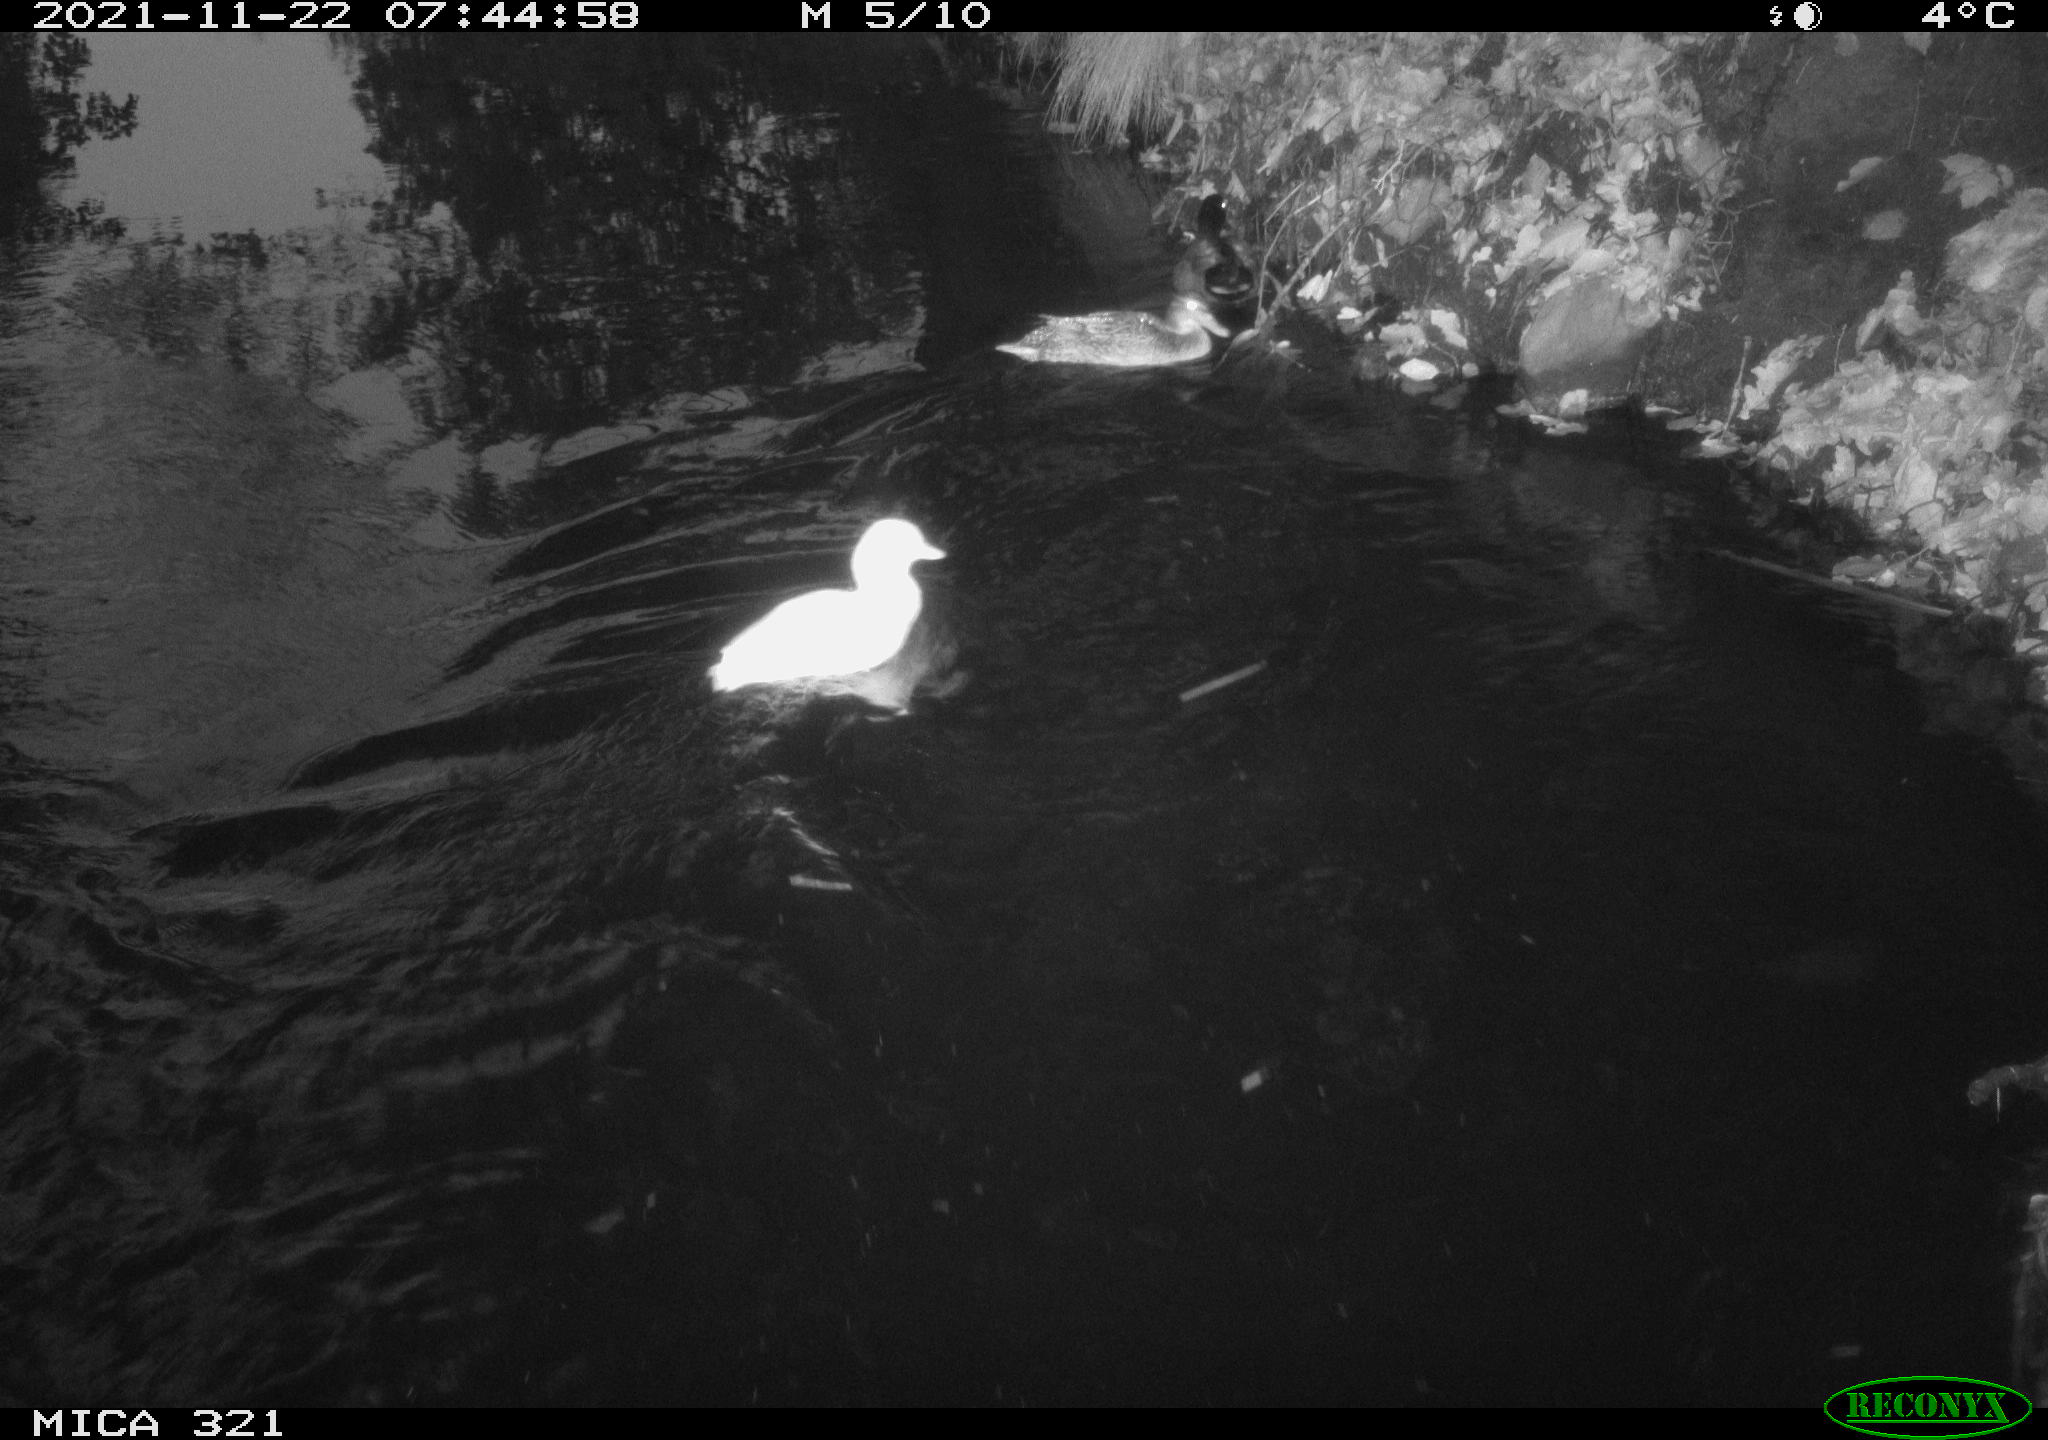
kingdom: Animalia
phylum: Chordata
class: Aves
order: Anseriformes
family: Anatidae
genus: Anas
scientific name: Anas platyrhynchos
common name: Mallard
